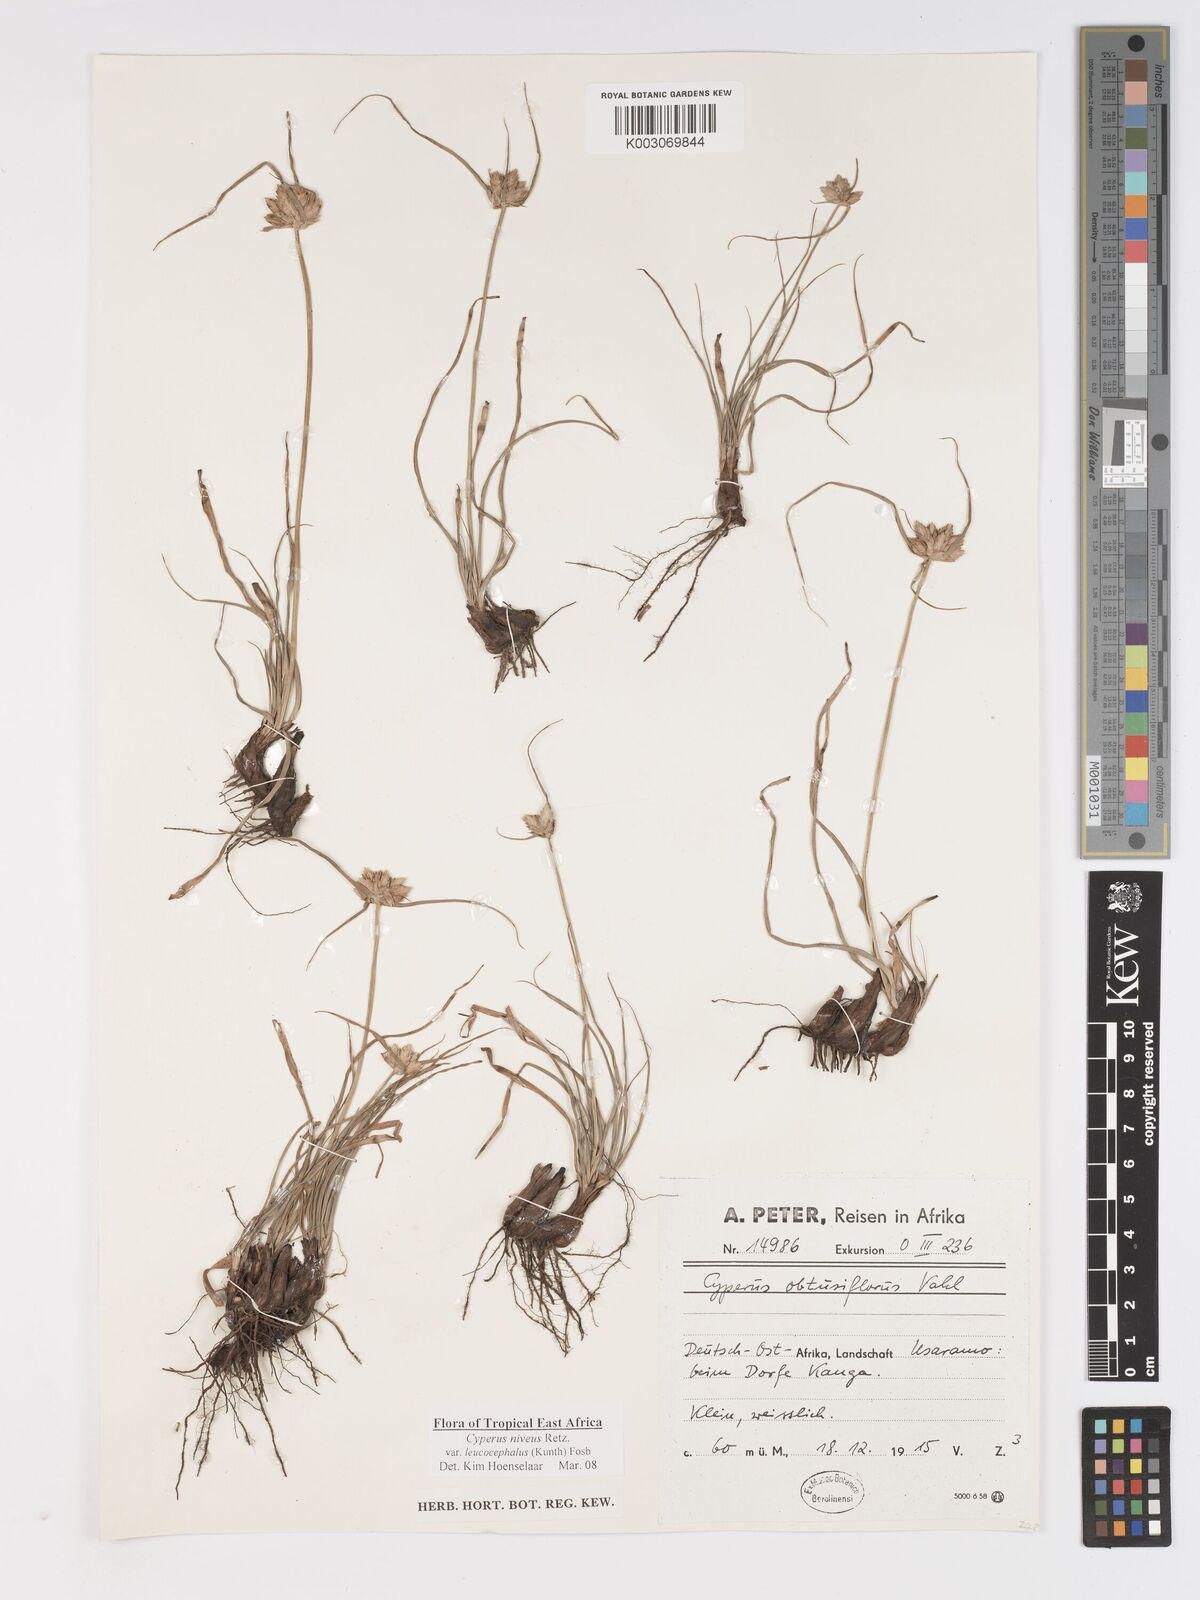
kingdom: Plantae
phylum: Tracheophyta
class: Liliopsida
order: Poales
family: Cyperaceae
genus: Cyperus
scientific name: Cyperus niveus
